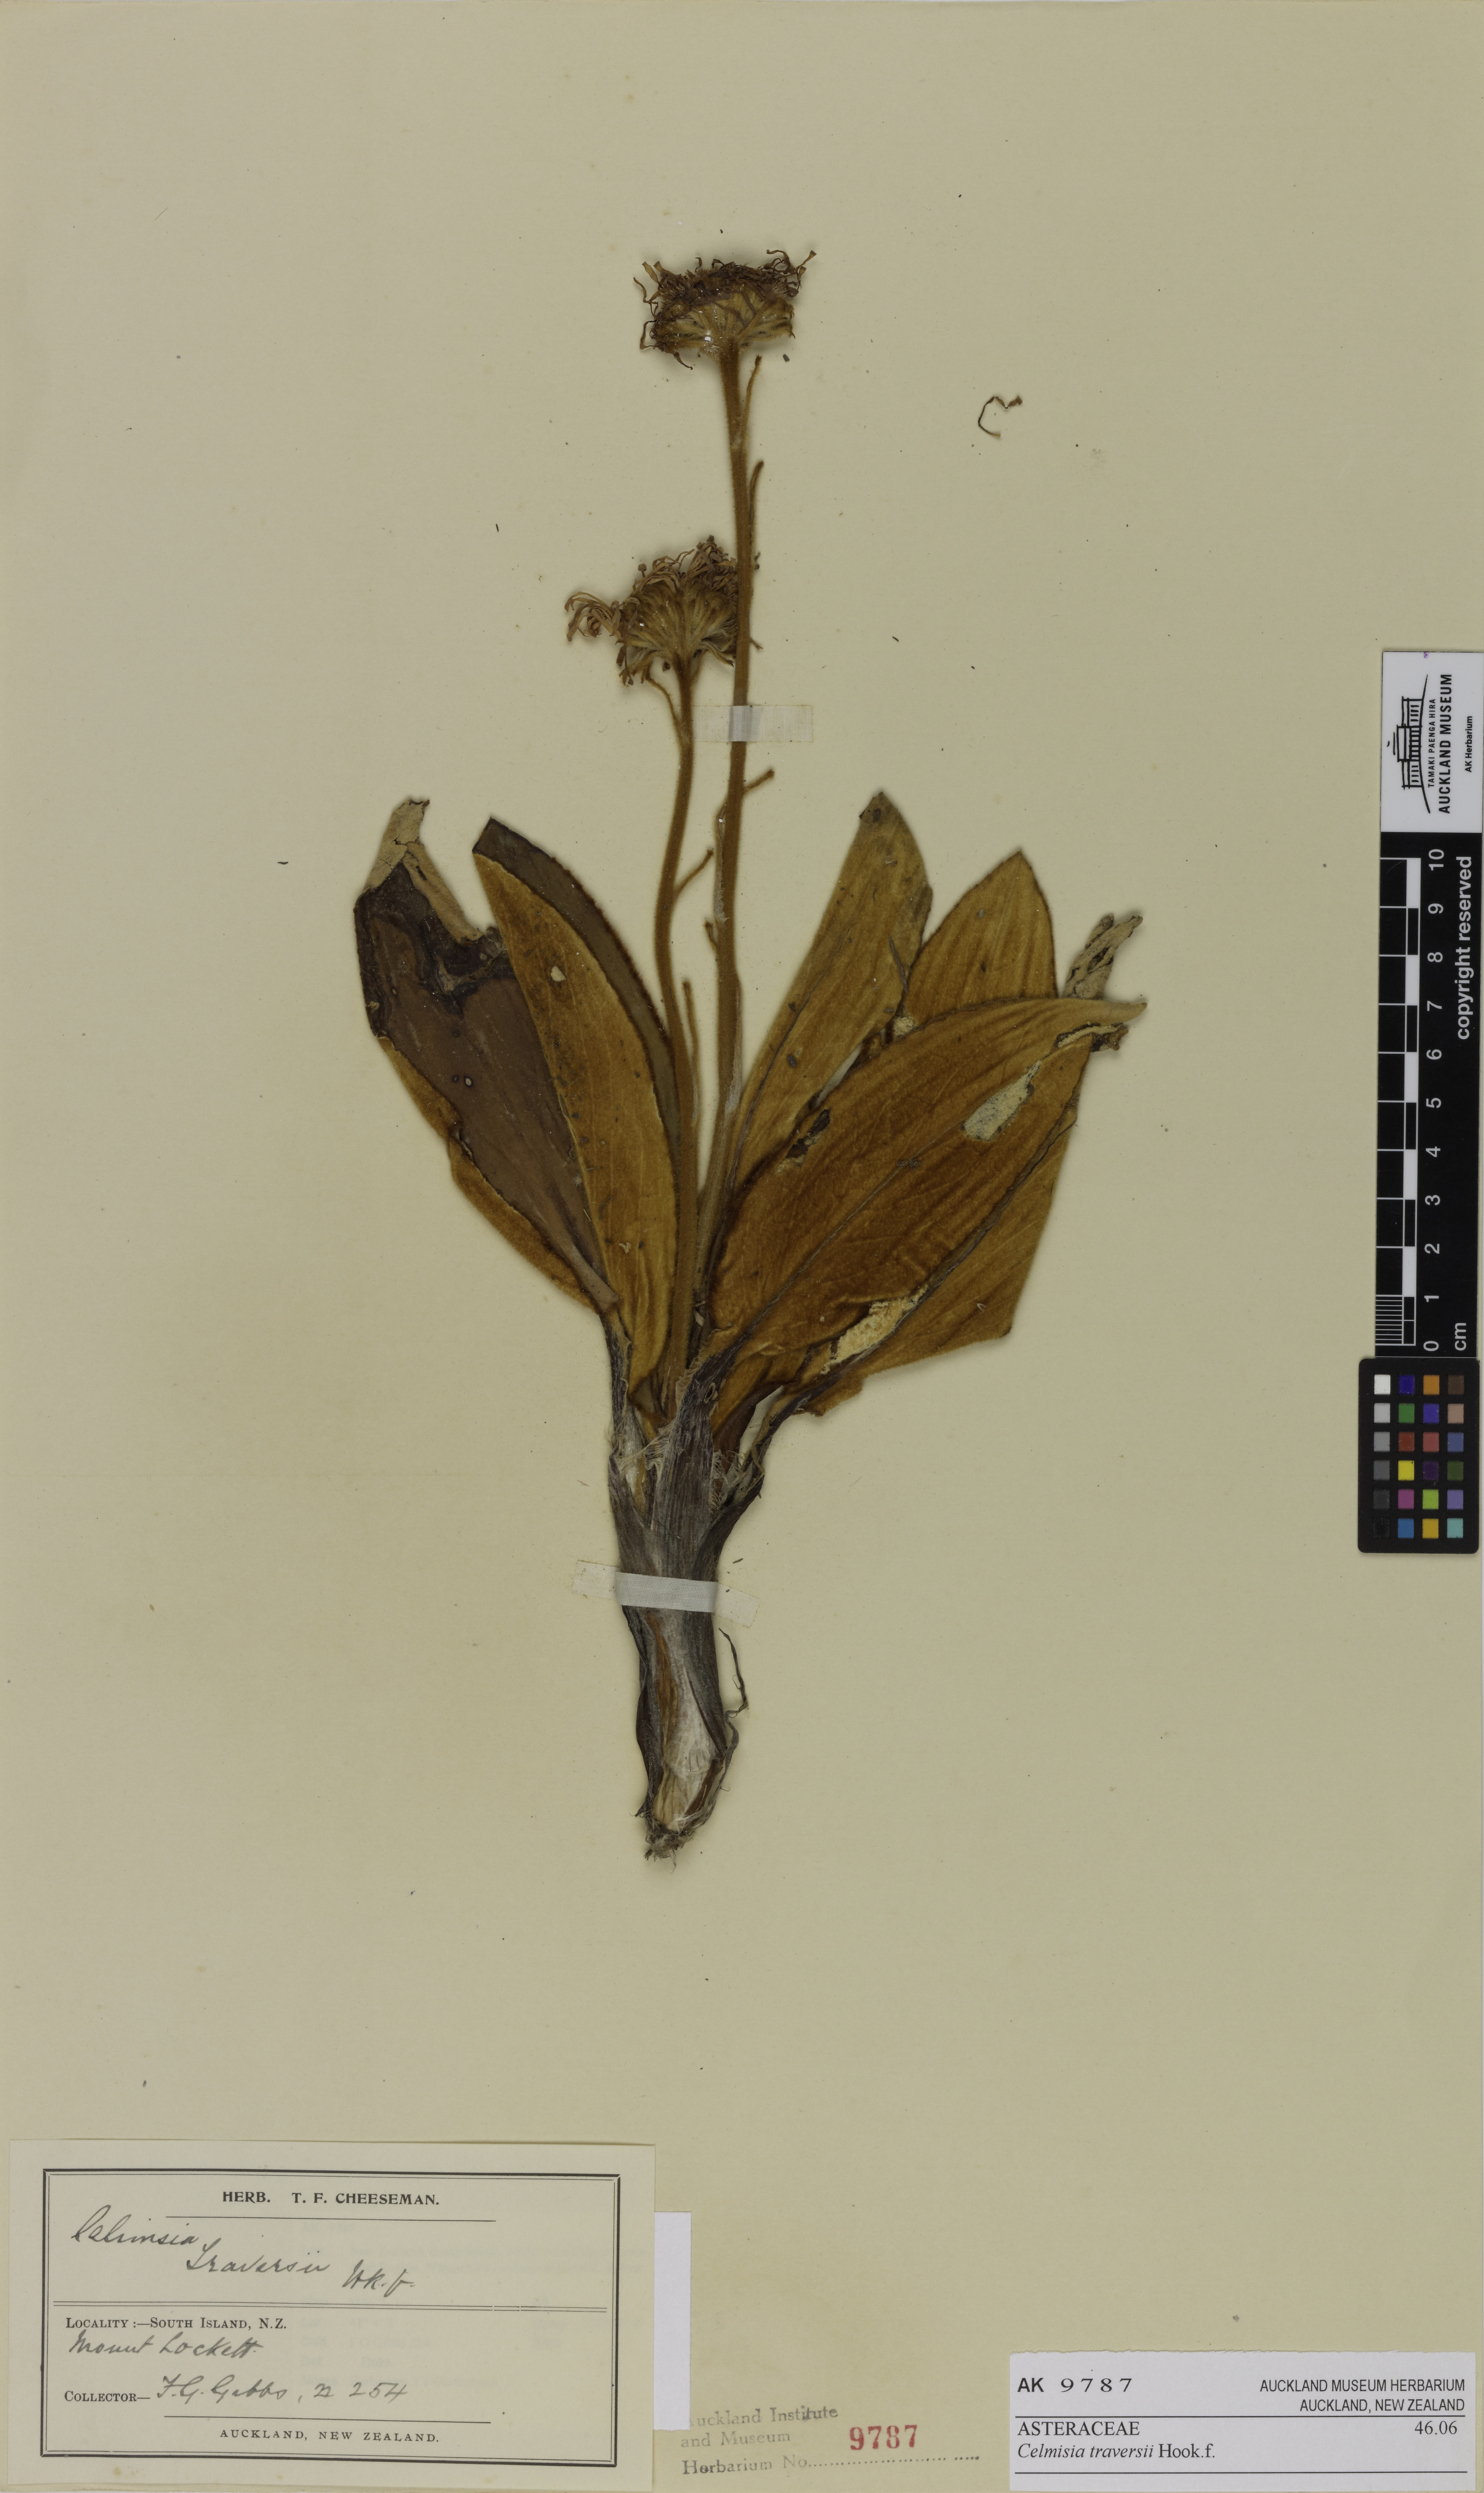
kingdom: Plantae
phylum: Tracheophyta
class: Magnoliopsida
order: Asterales
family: Asteraceae
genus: Celmisia
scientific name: Celmisia traversii
